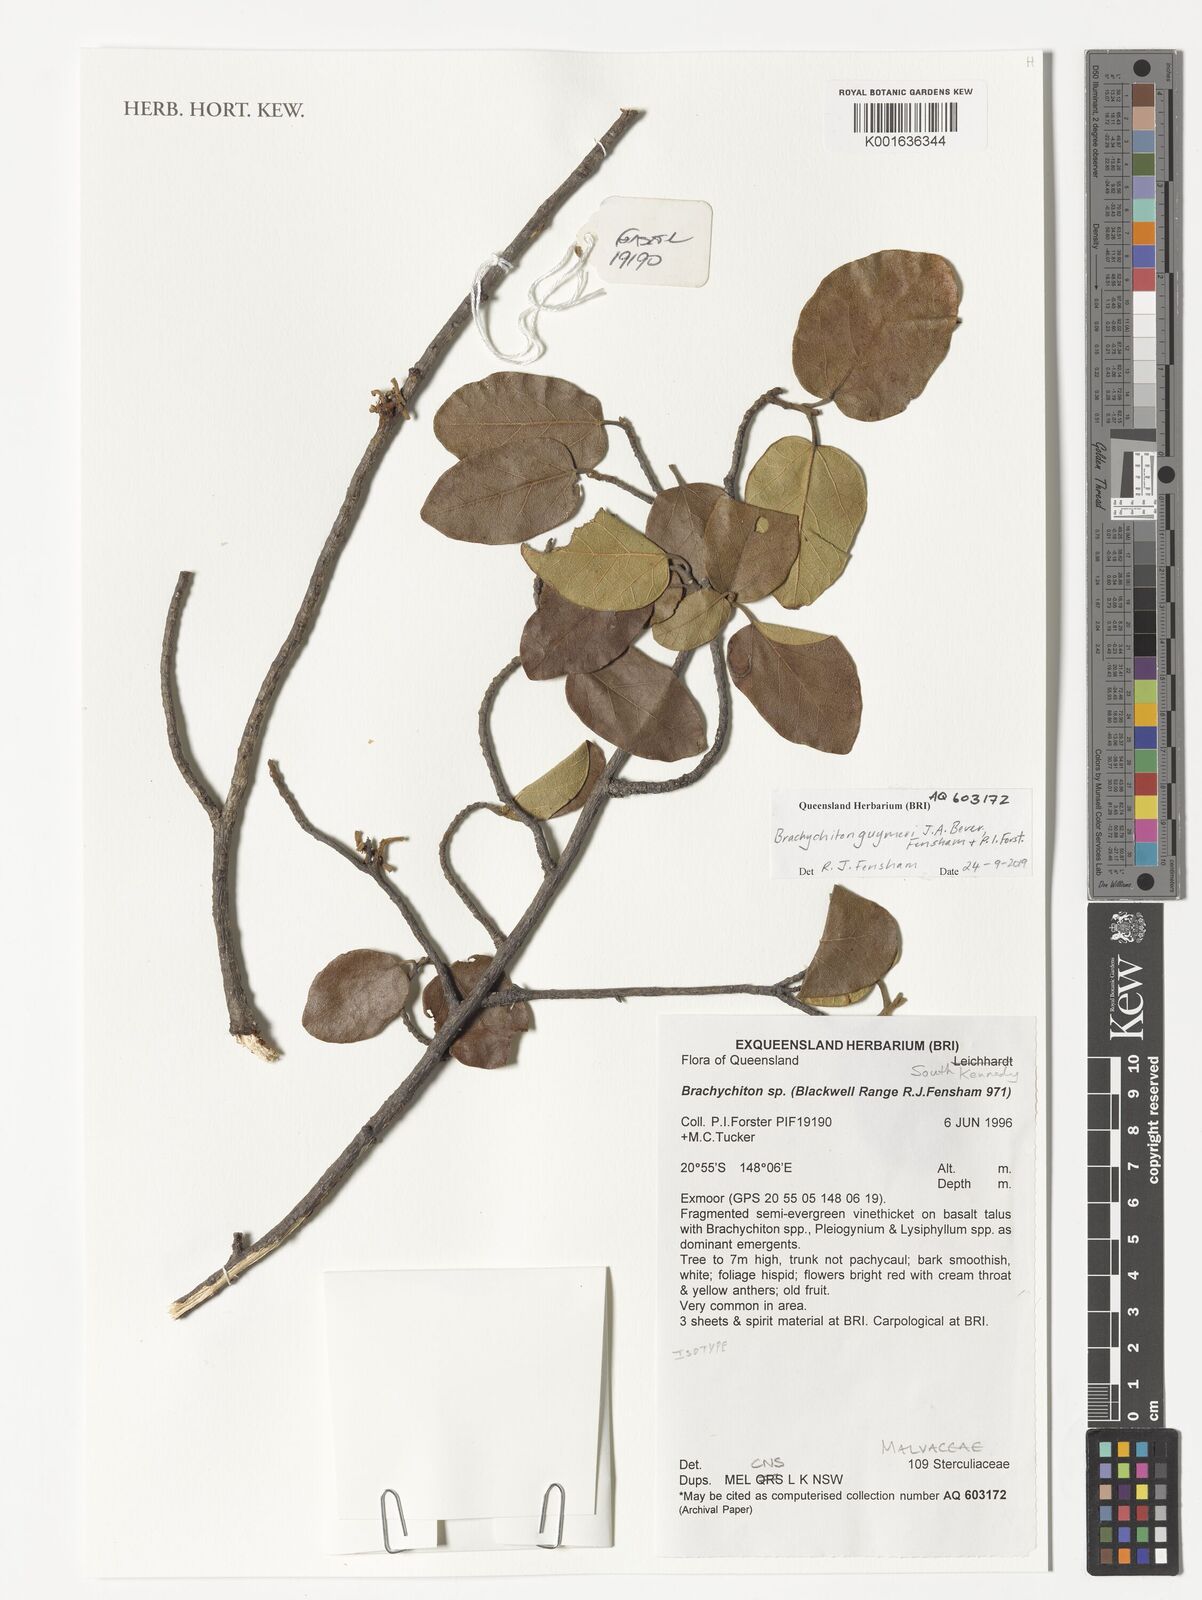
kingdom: Plantae
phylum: Tracheophyta
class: Magnoliopsida
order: Malvales
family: Malvaceae
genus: Brachychiton
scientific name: Brachychiton guymeri
